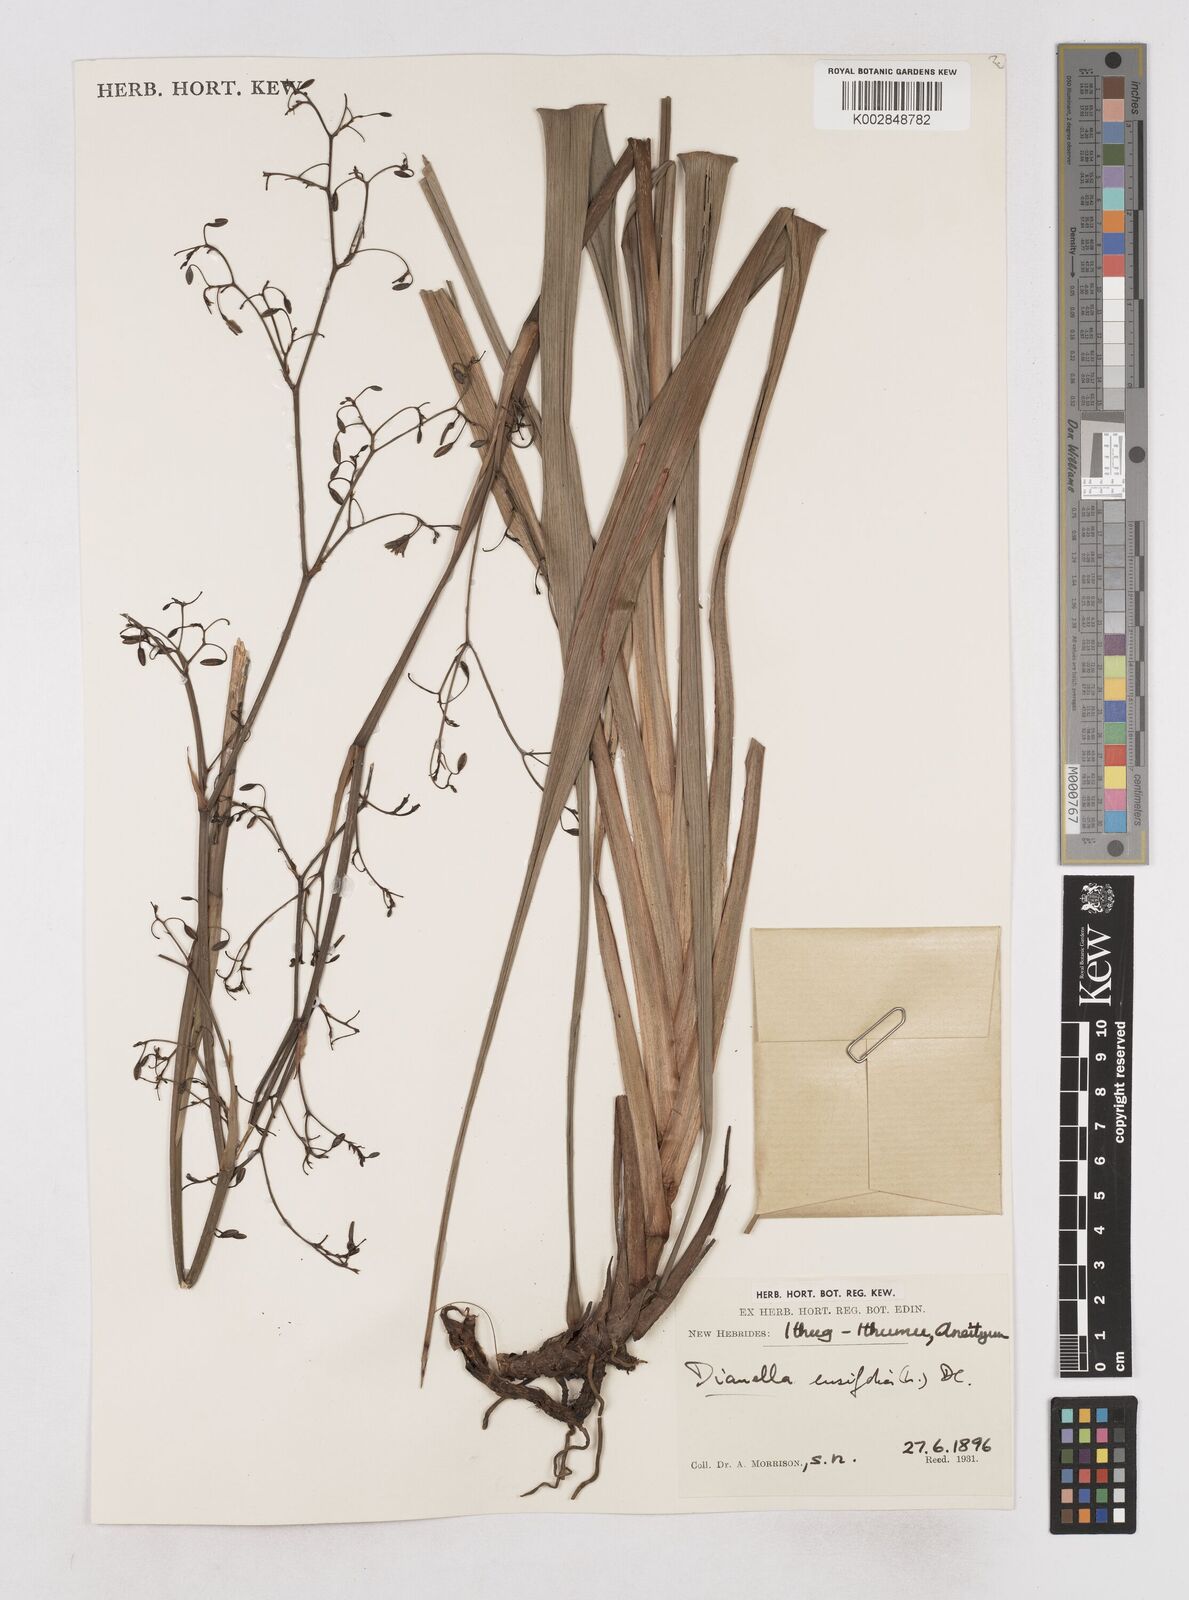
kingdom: Plantae
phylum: Tracheophyta
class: Liliopsida
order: Asparagales
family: Asphodelaceae
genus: Dianella
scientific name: Dianella ensifolia
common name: New zealand lilyplant
